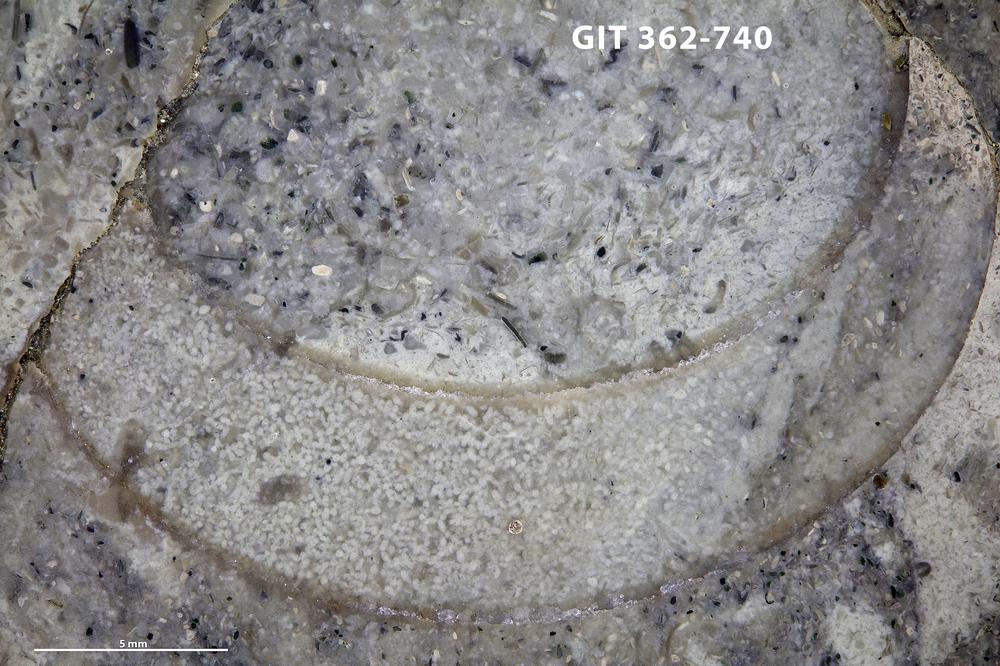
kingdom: Animalia
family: Coprulidae
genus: Coprulus
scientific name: Coprulus
